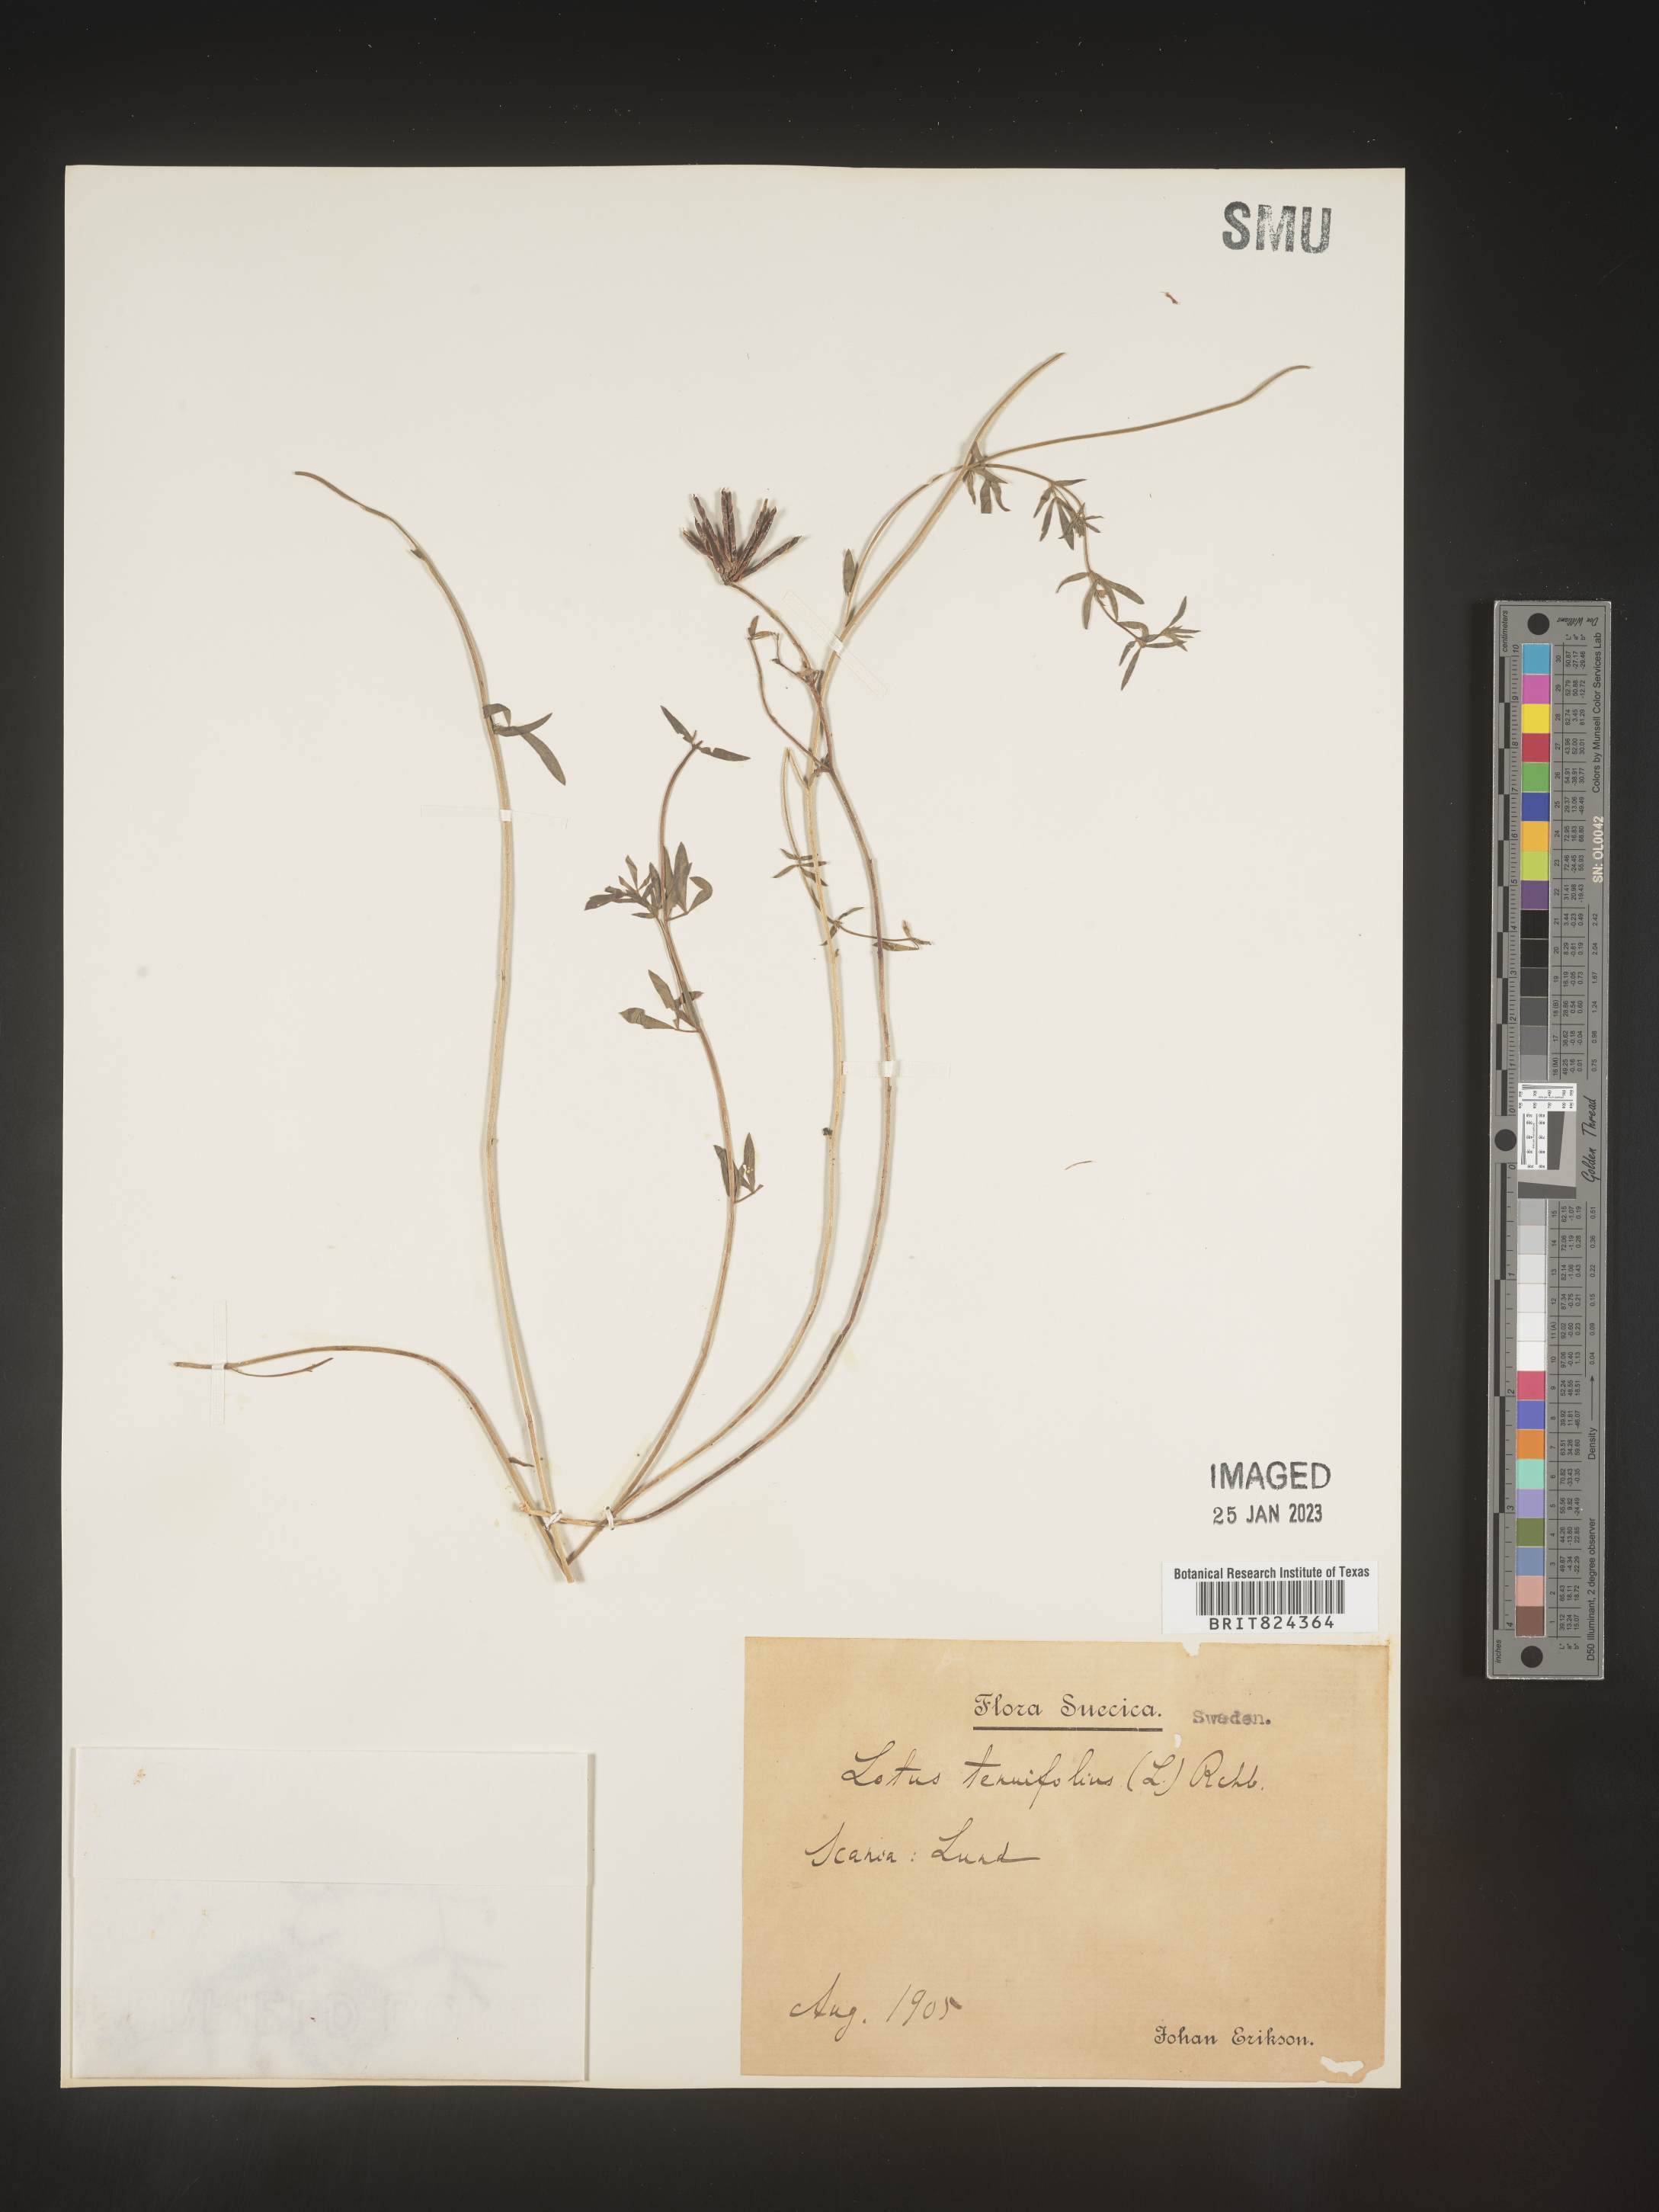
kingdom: Plantae
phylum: Tracheophyta
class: Magnoliopsida
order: Fabales
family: Fabaceae
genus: Lotus
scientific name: Lotus
